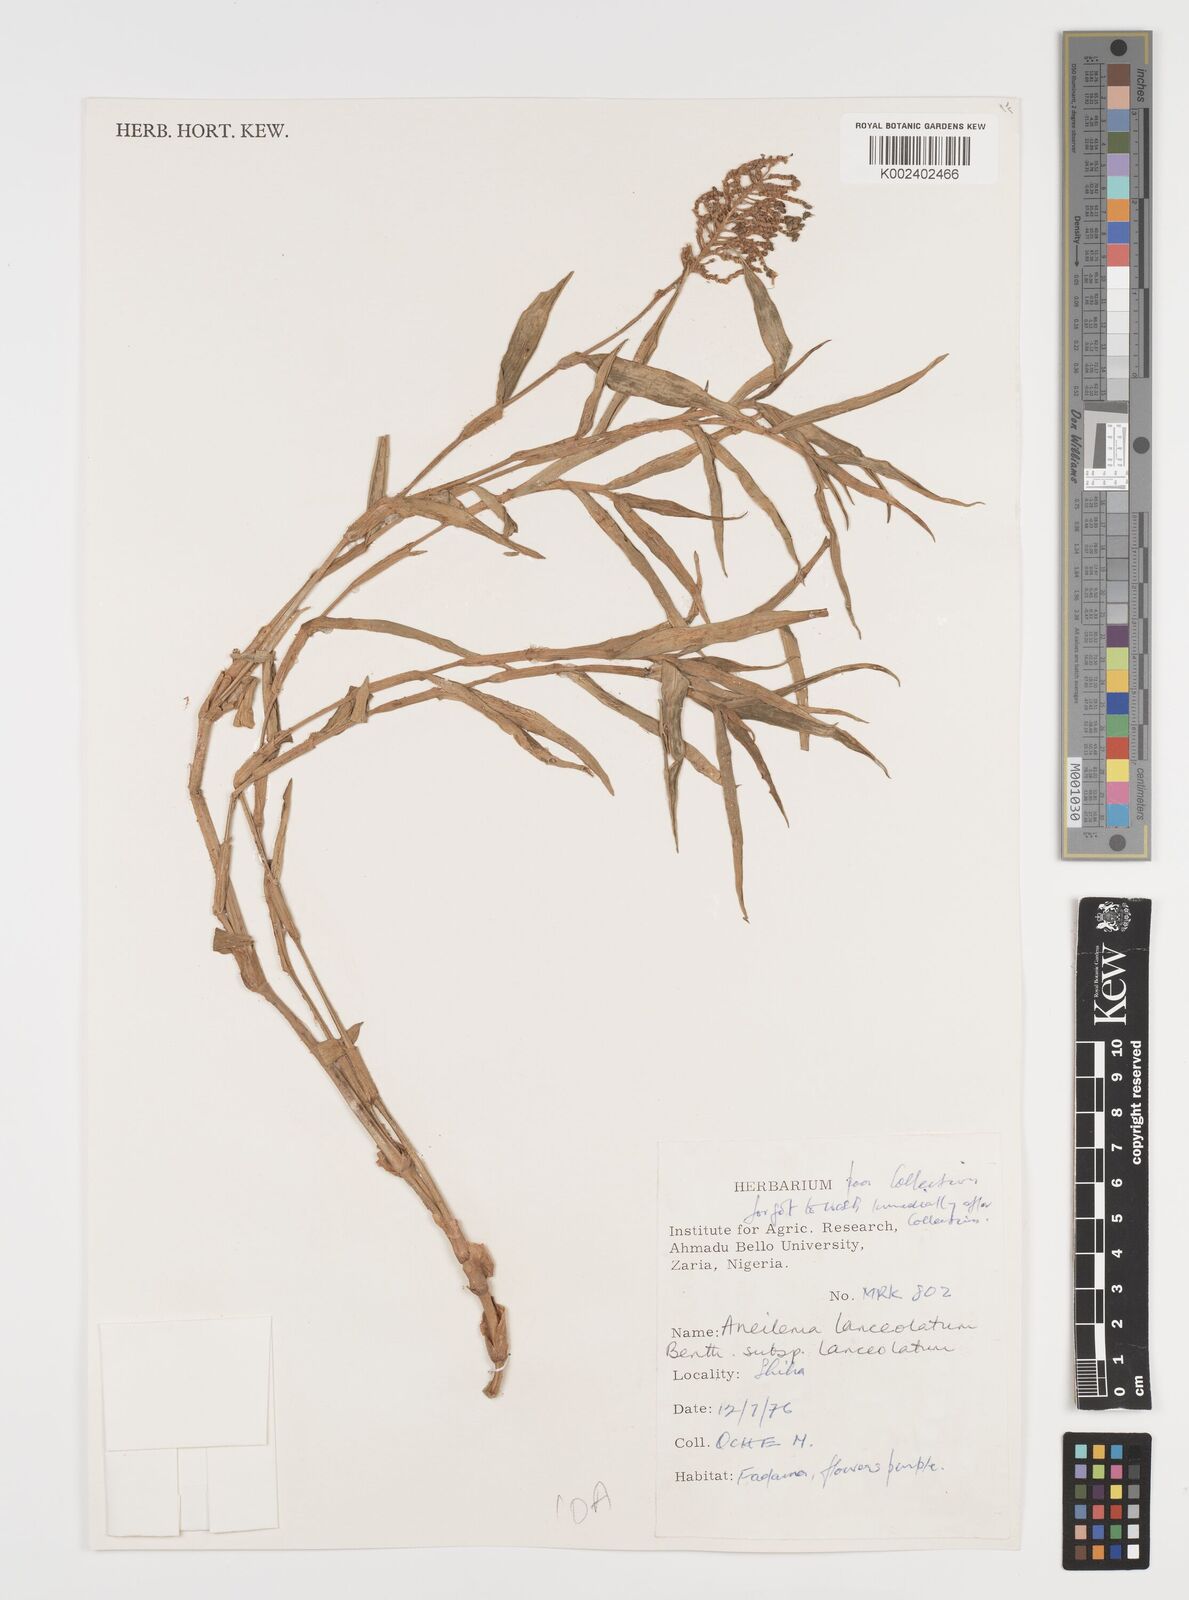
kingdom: Plantae
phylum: Tracheophyta
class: Liliopsida
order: Commelinales
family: Commelinaceae
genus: Murdannia
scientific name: Murdannia spirata
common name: Asiatic dewflower
